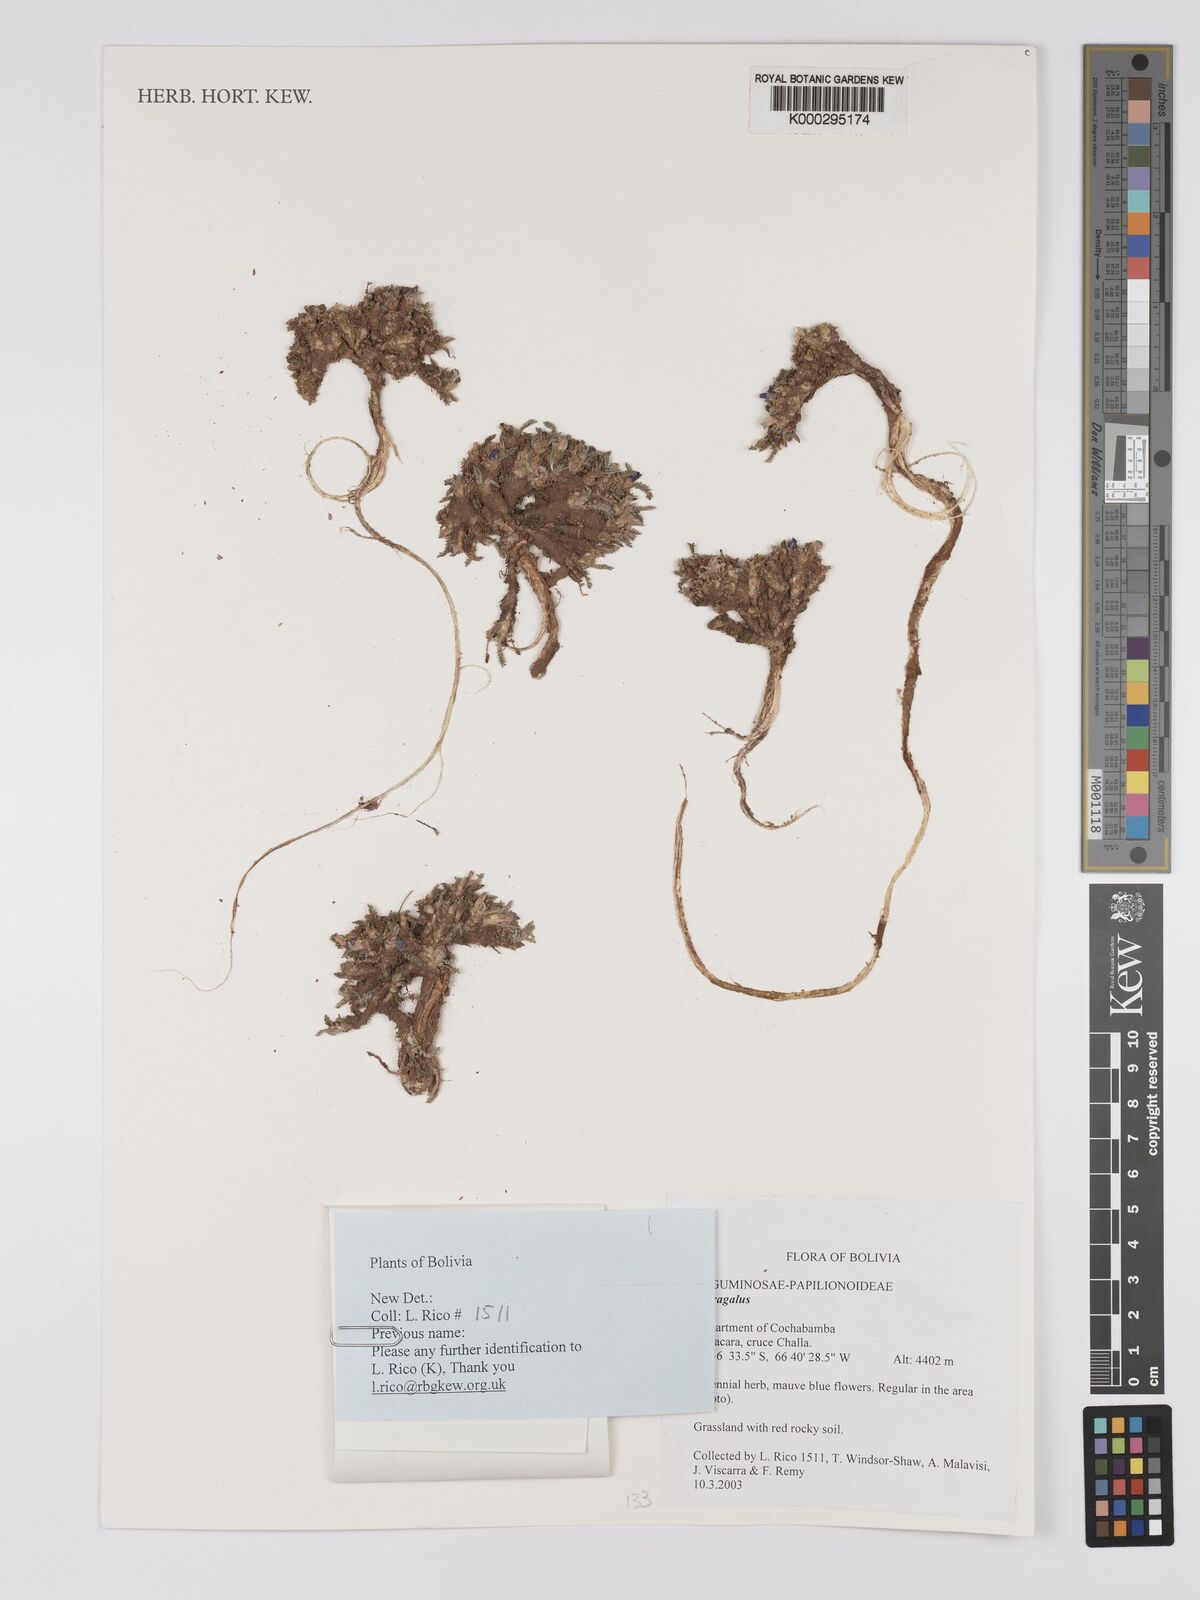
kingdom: Plantae
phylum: Tracheophyta
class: Magnoliopsida
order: Fabales
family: Fabaceae
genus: Astragalus
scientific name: Astragalus
